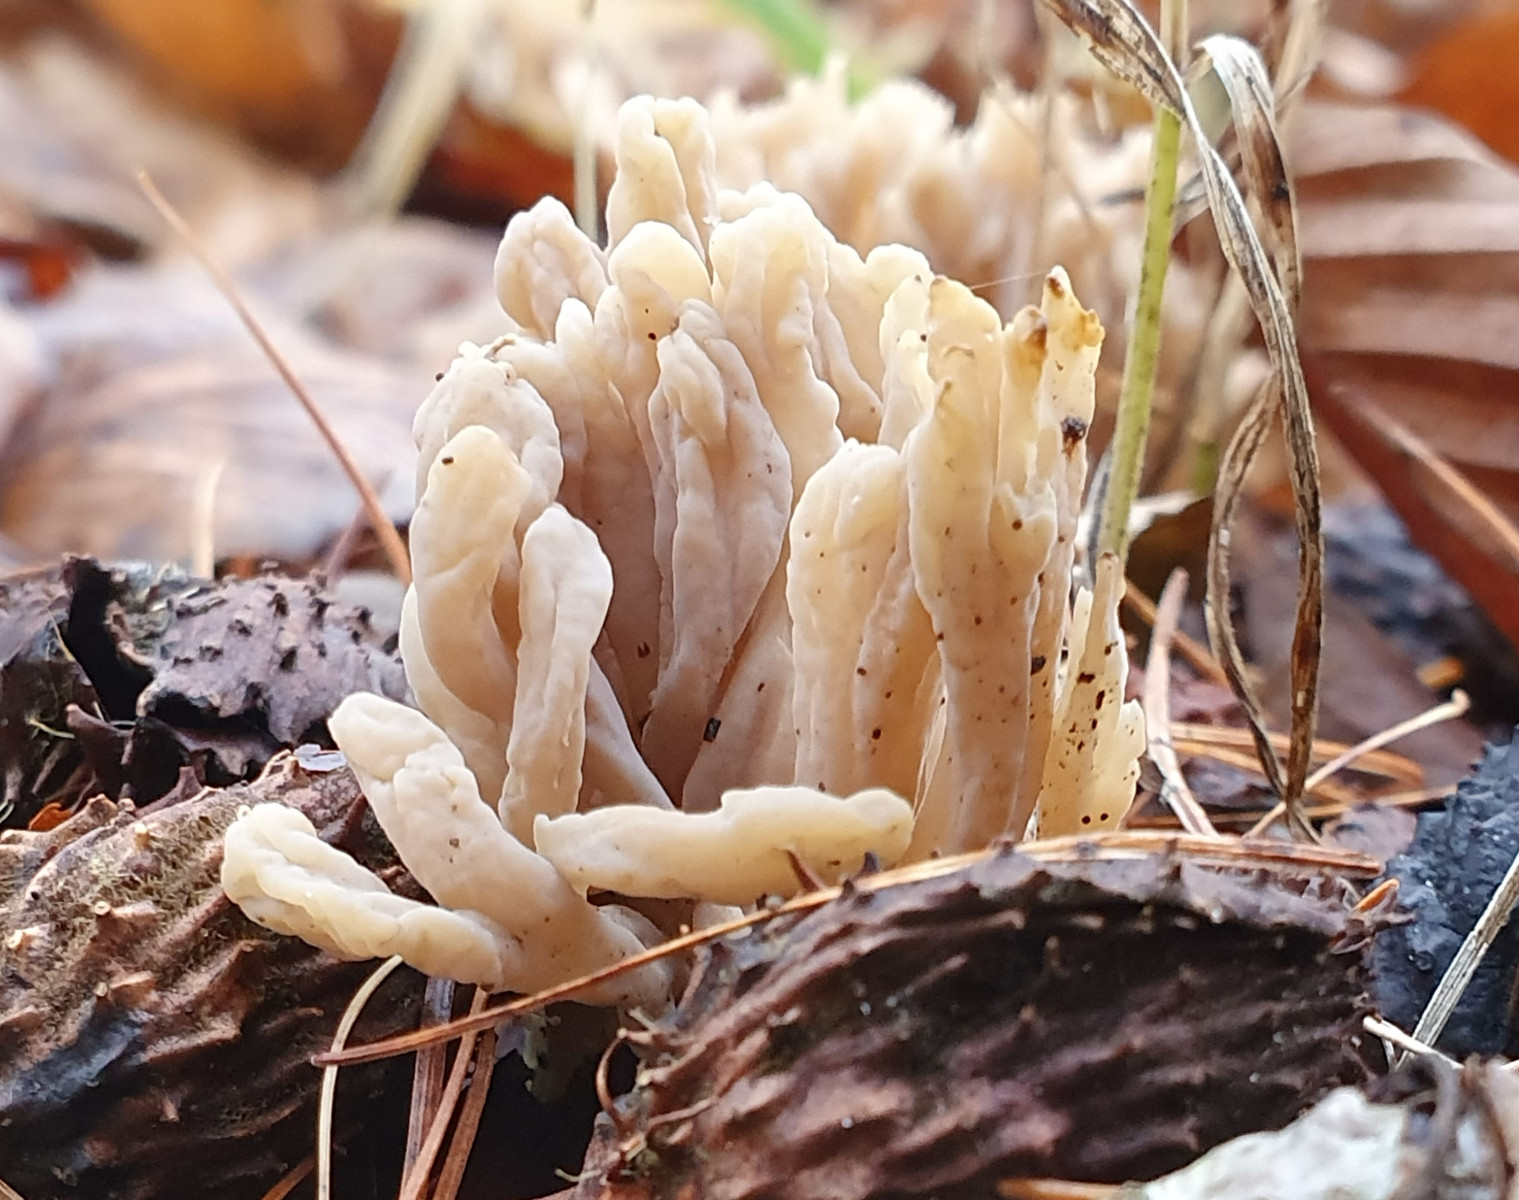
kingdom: Fungi
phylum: Basidiomycota
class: Agaricomycetes
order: Cantharellales
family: Hydnaceae
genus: Clavulina
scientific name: Clavulina
